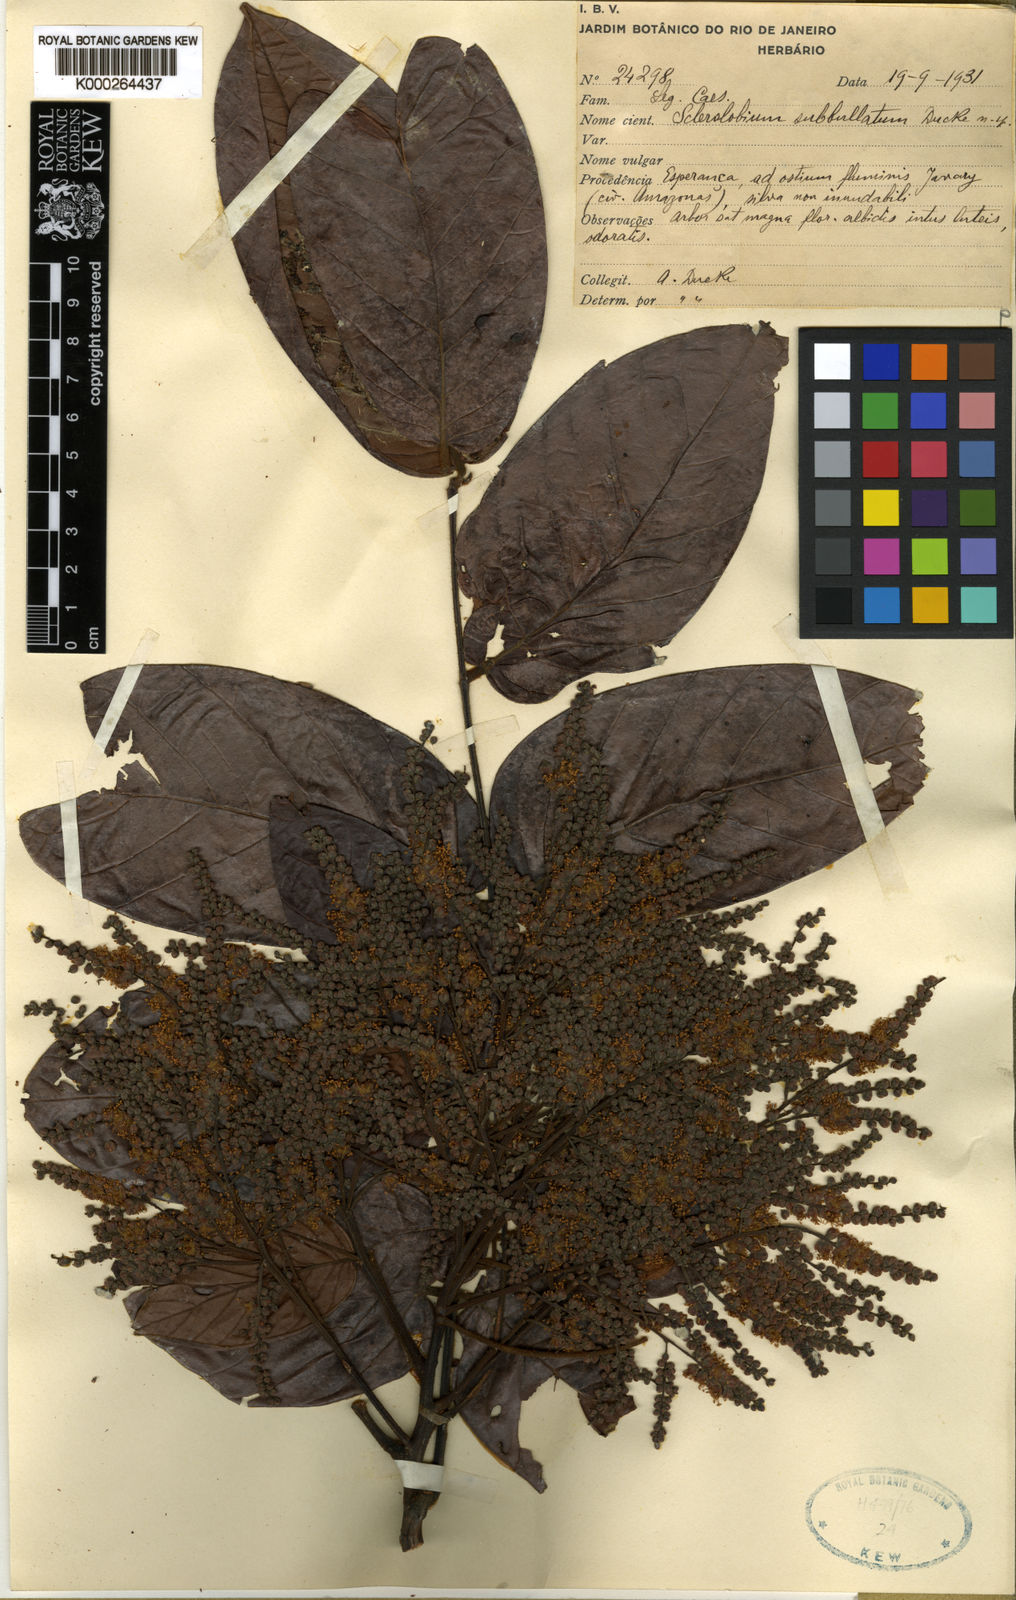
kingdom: Plantae
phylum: Tracheophyta
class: Magnoliopsida
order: Fabales
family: Fabaceae
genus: Tachigali
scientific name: Tachigali guianensis
